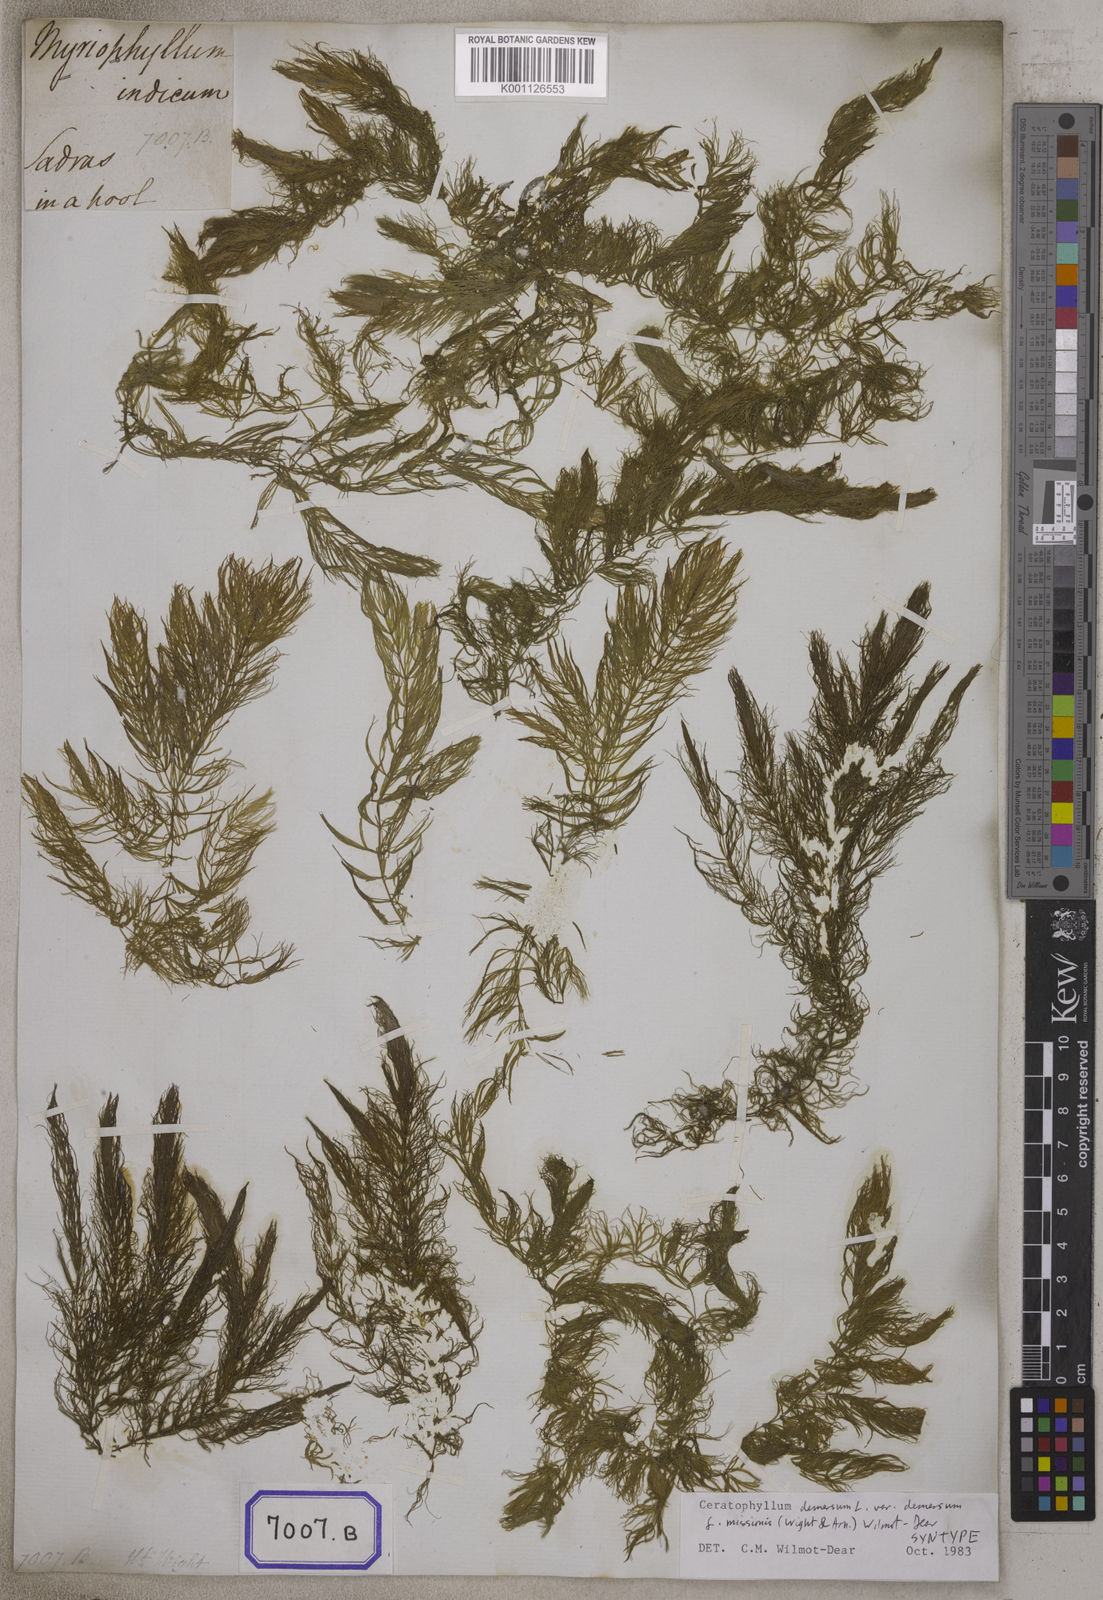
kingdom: Plantae
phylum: Tracheophyta
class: Magnoliopsida
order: Ceratophyllales
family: Ceratophyllaceae
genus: Ceratophyllum
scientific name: Ceratophyllum demersum
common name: Rigid hornwort
